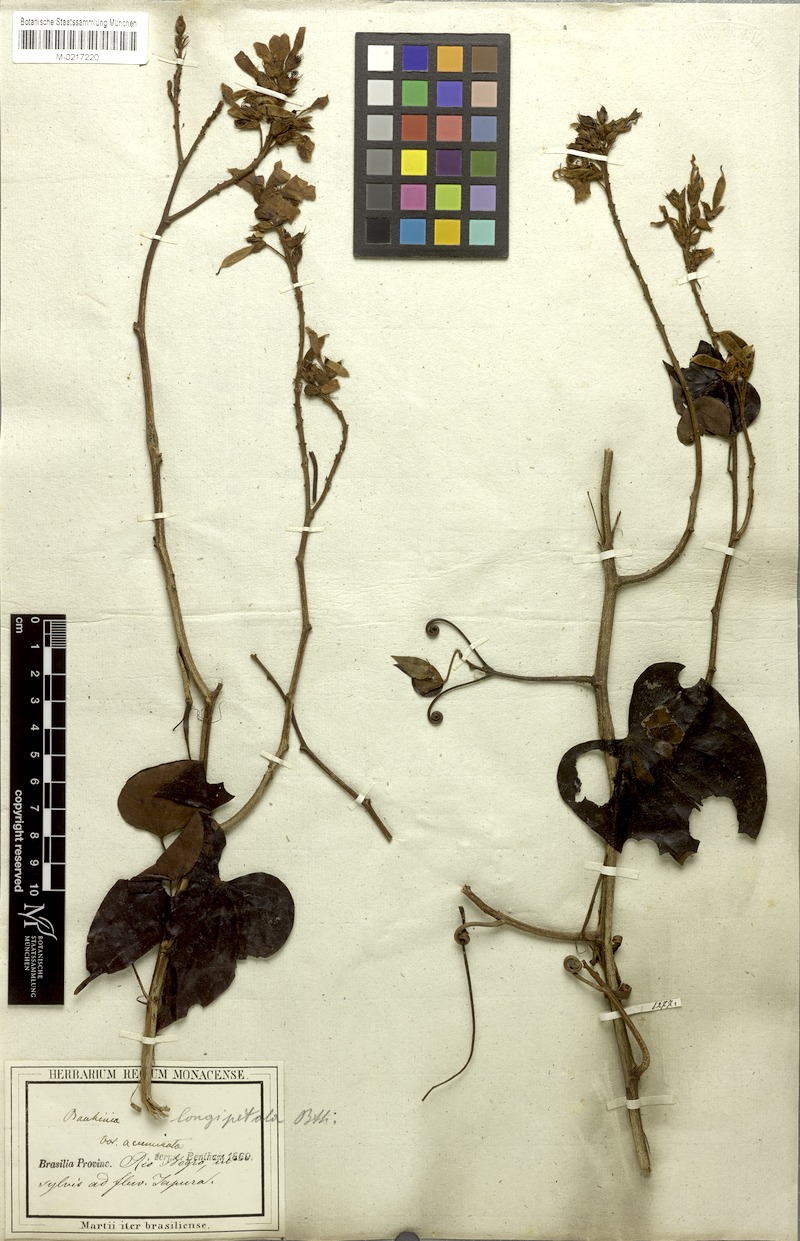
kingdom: Plantae
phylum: Tracheophyta
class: Magnoliopsida
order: Fabales
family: Fabaceae
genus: Schnella
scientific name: Schnella glabra
